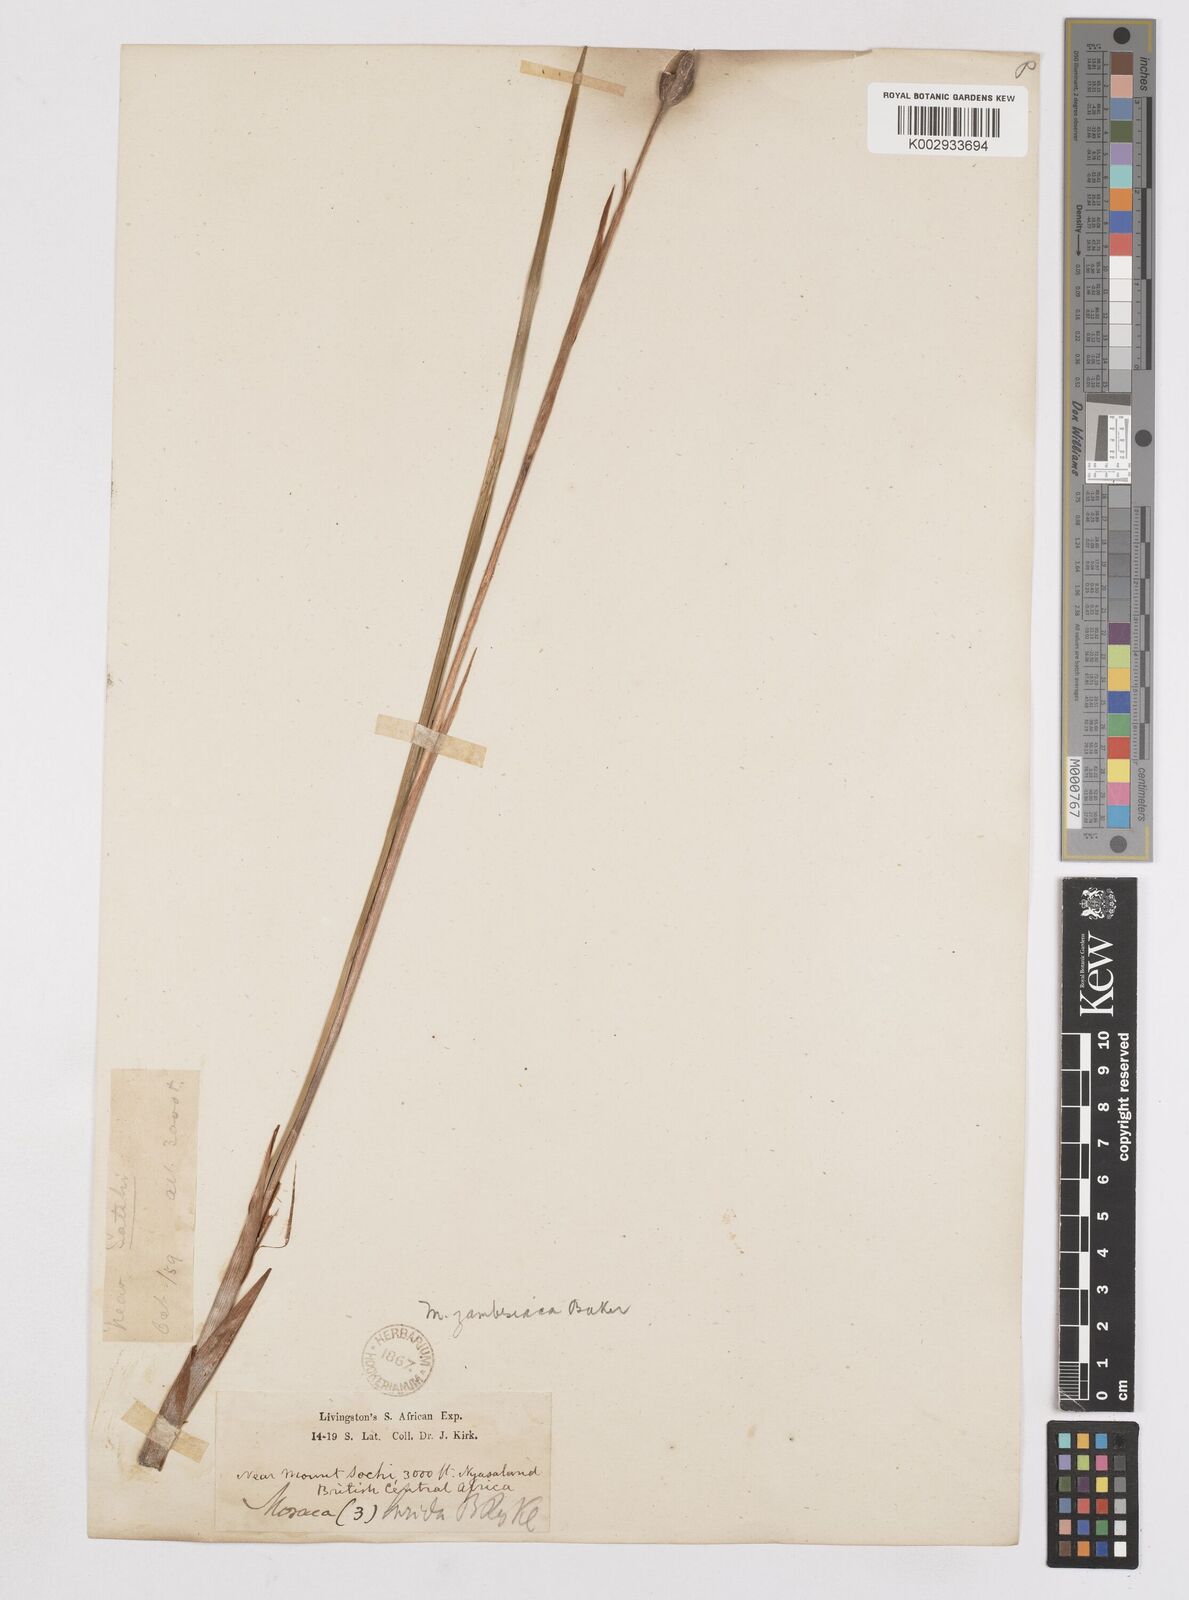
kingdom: Plantae
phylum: Tracheophyta
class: Liliopsida
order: Asparagales
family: Iridaceae
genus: Moraea
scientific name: Moraea schimperi
